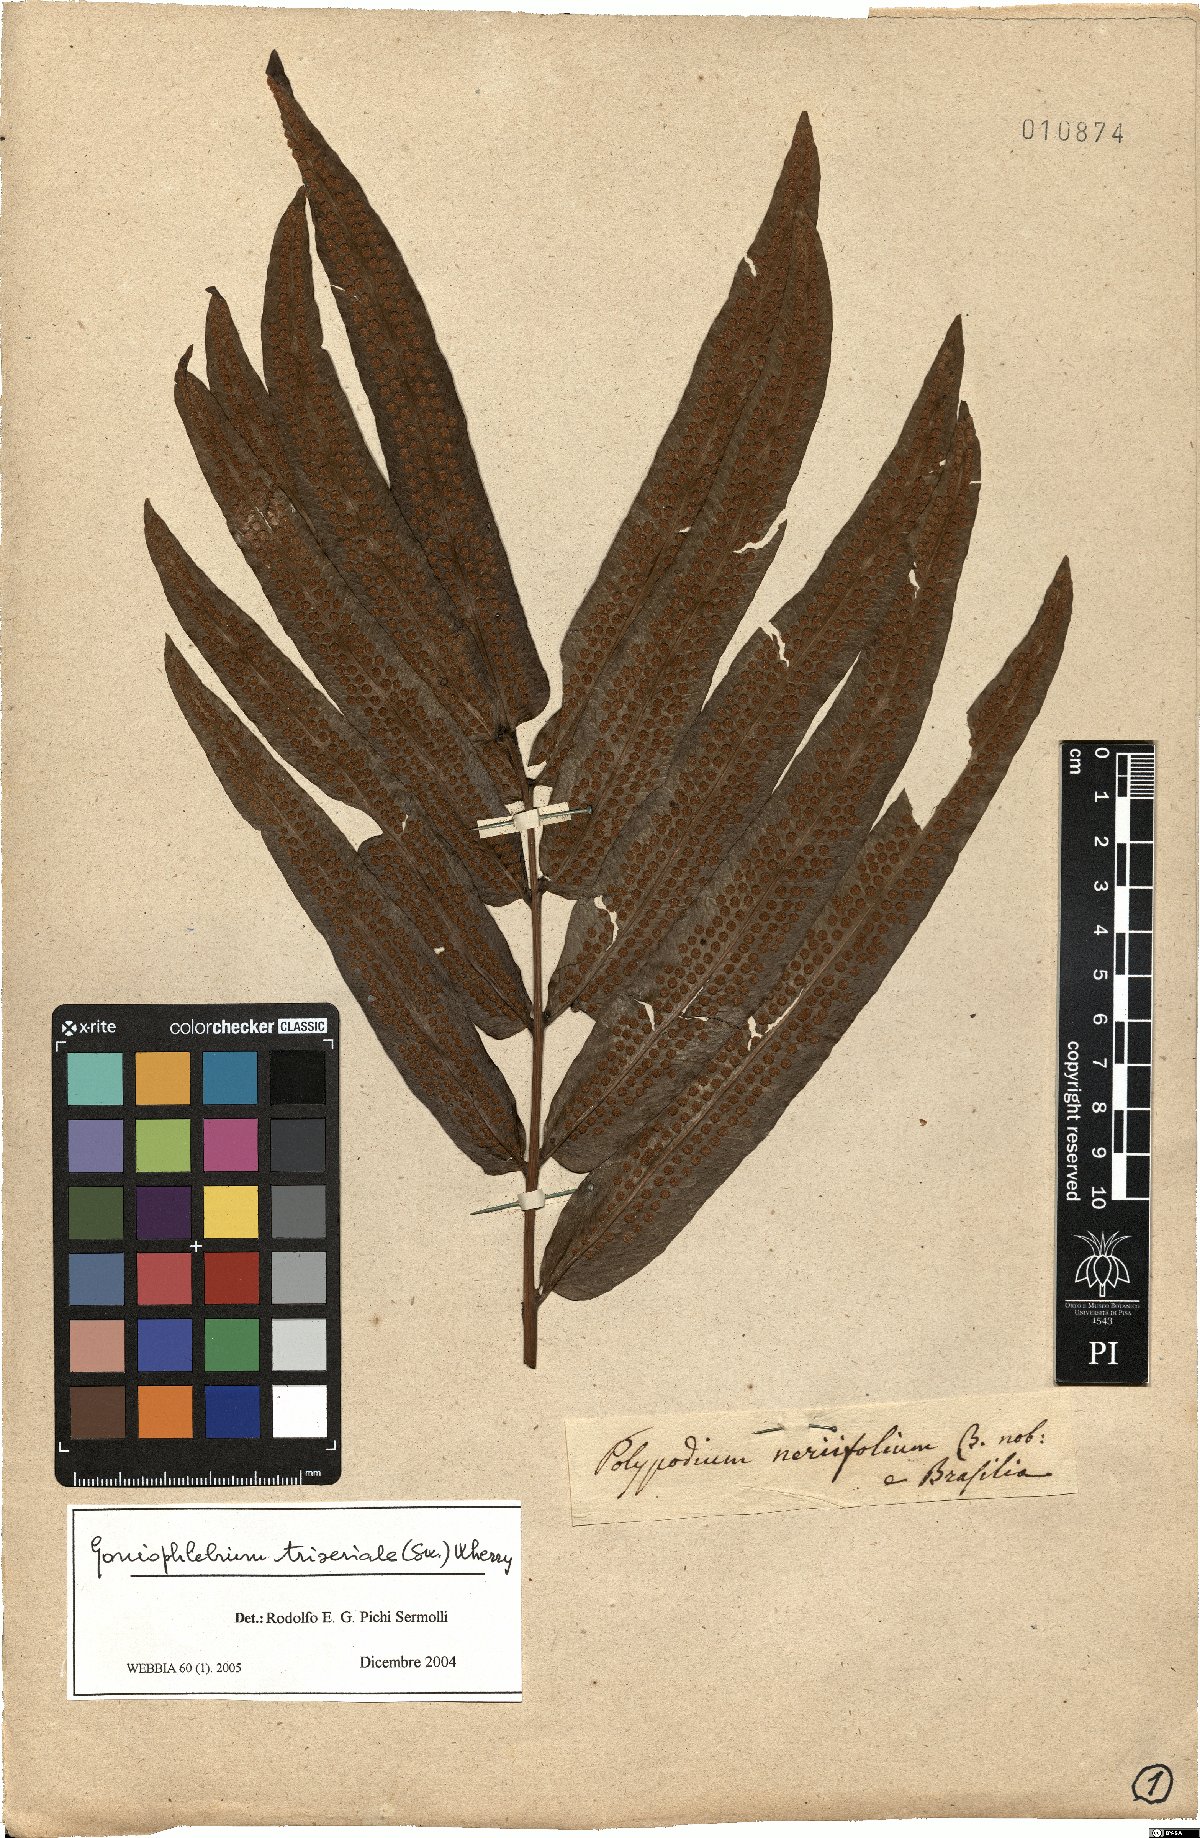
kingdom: Plantae
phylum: Tracheophyta
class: Polypodiopsida
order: Polypodiales
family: Polypodiaceae
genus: Serpocaulon
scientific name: Serpocaulon triseriale
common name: Angle-vein fern
